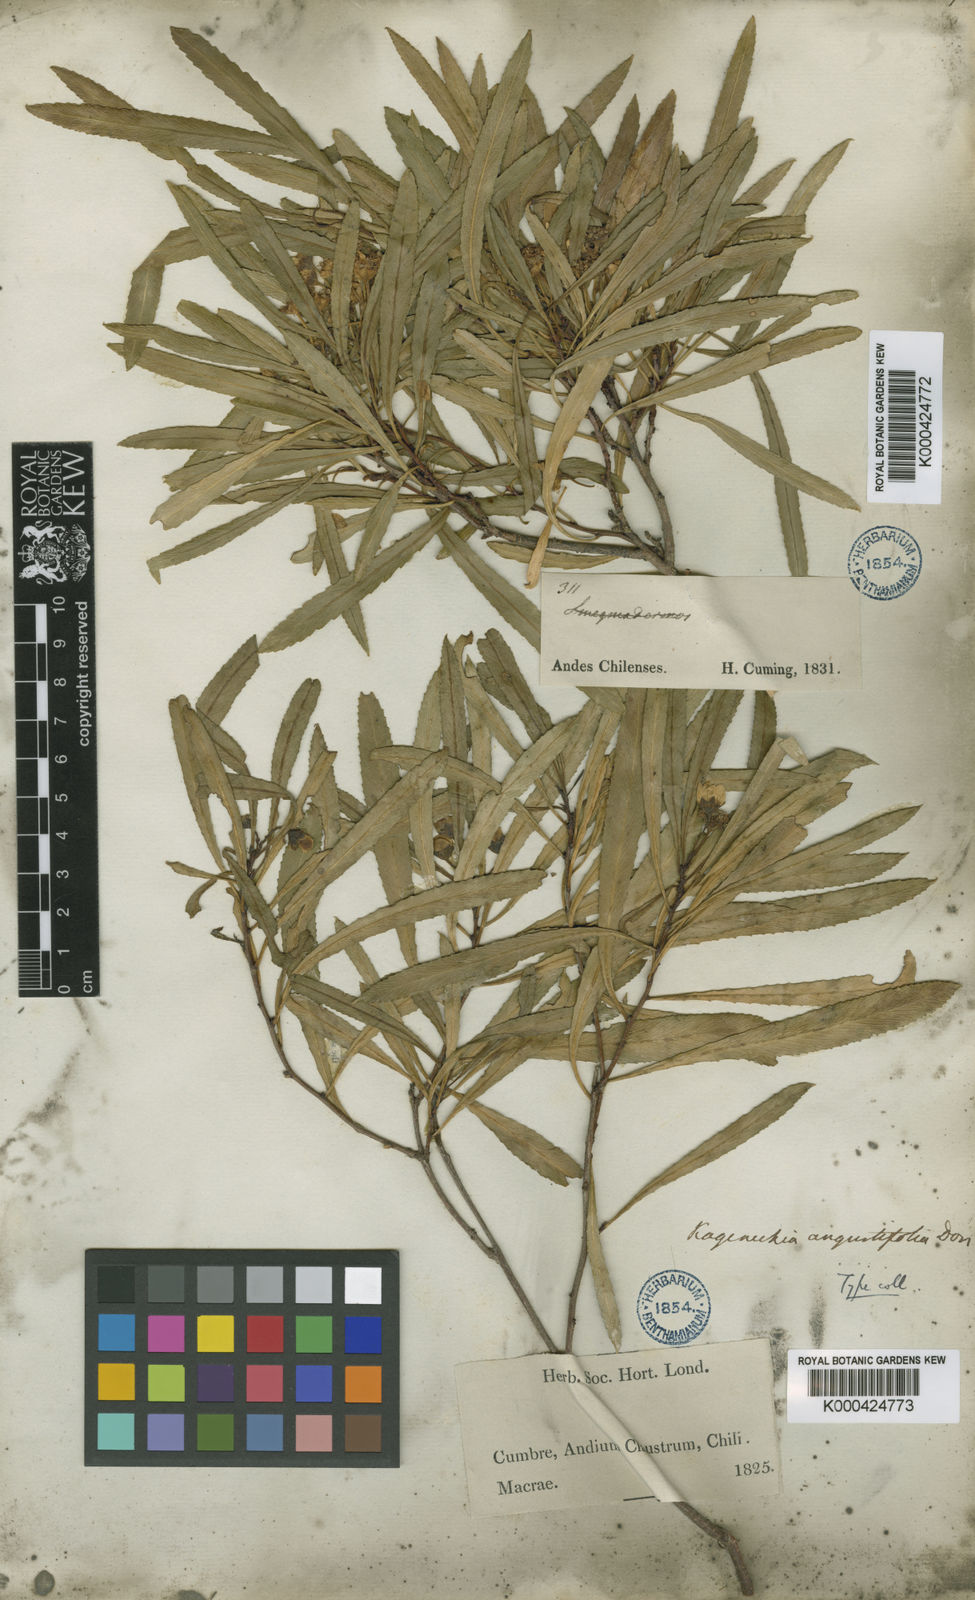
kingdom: Plantae
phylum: Tracheophyta
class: Magnoliopsida
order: Rosales
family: Rosaceae
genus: Kageneckia
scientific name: Kageneckia angustifolia
